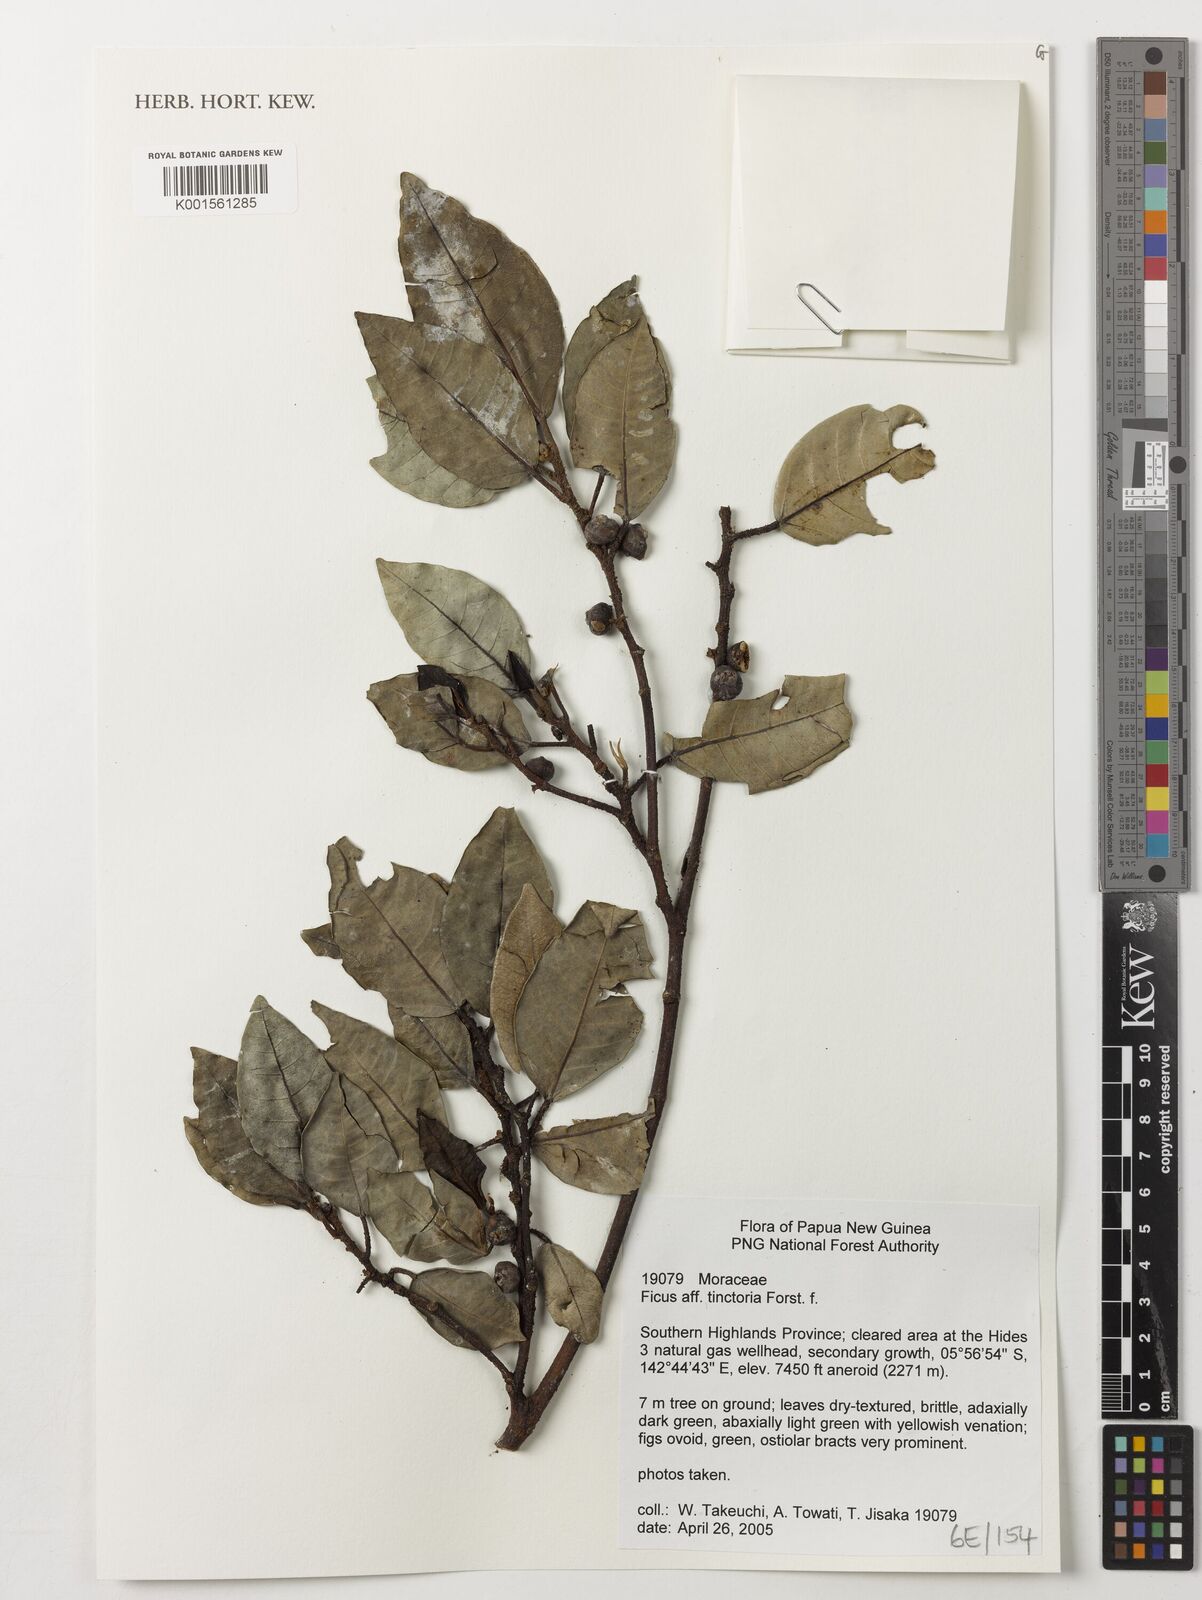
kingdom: Plantae
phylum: Tracheophyta
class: Magnoliopsida
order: Rosales
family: Moraceae
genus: Ficus
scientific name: Ficus tinctoria
